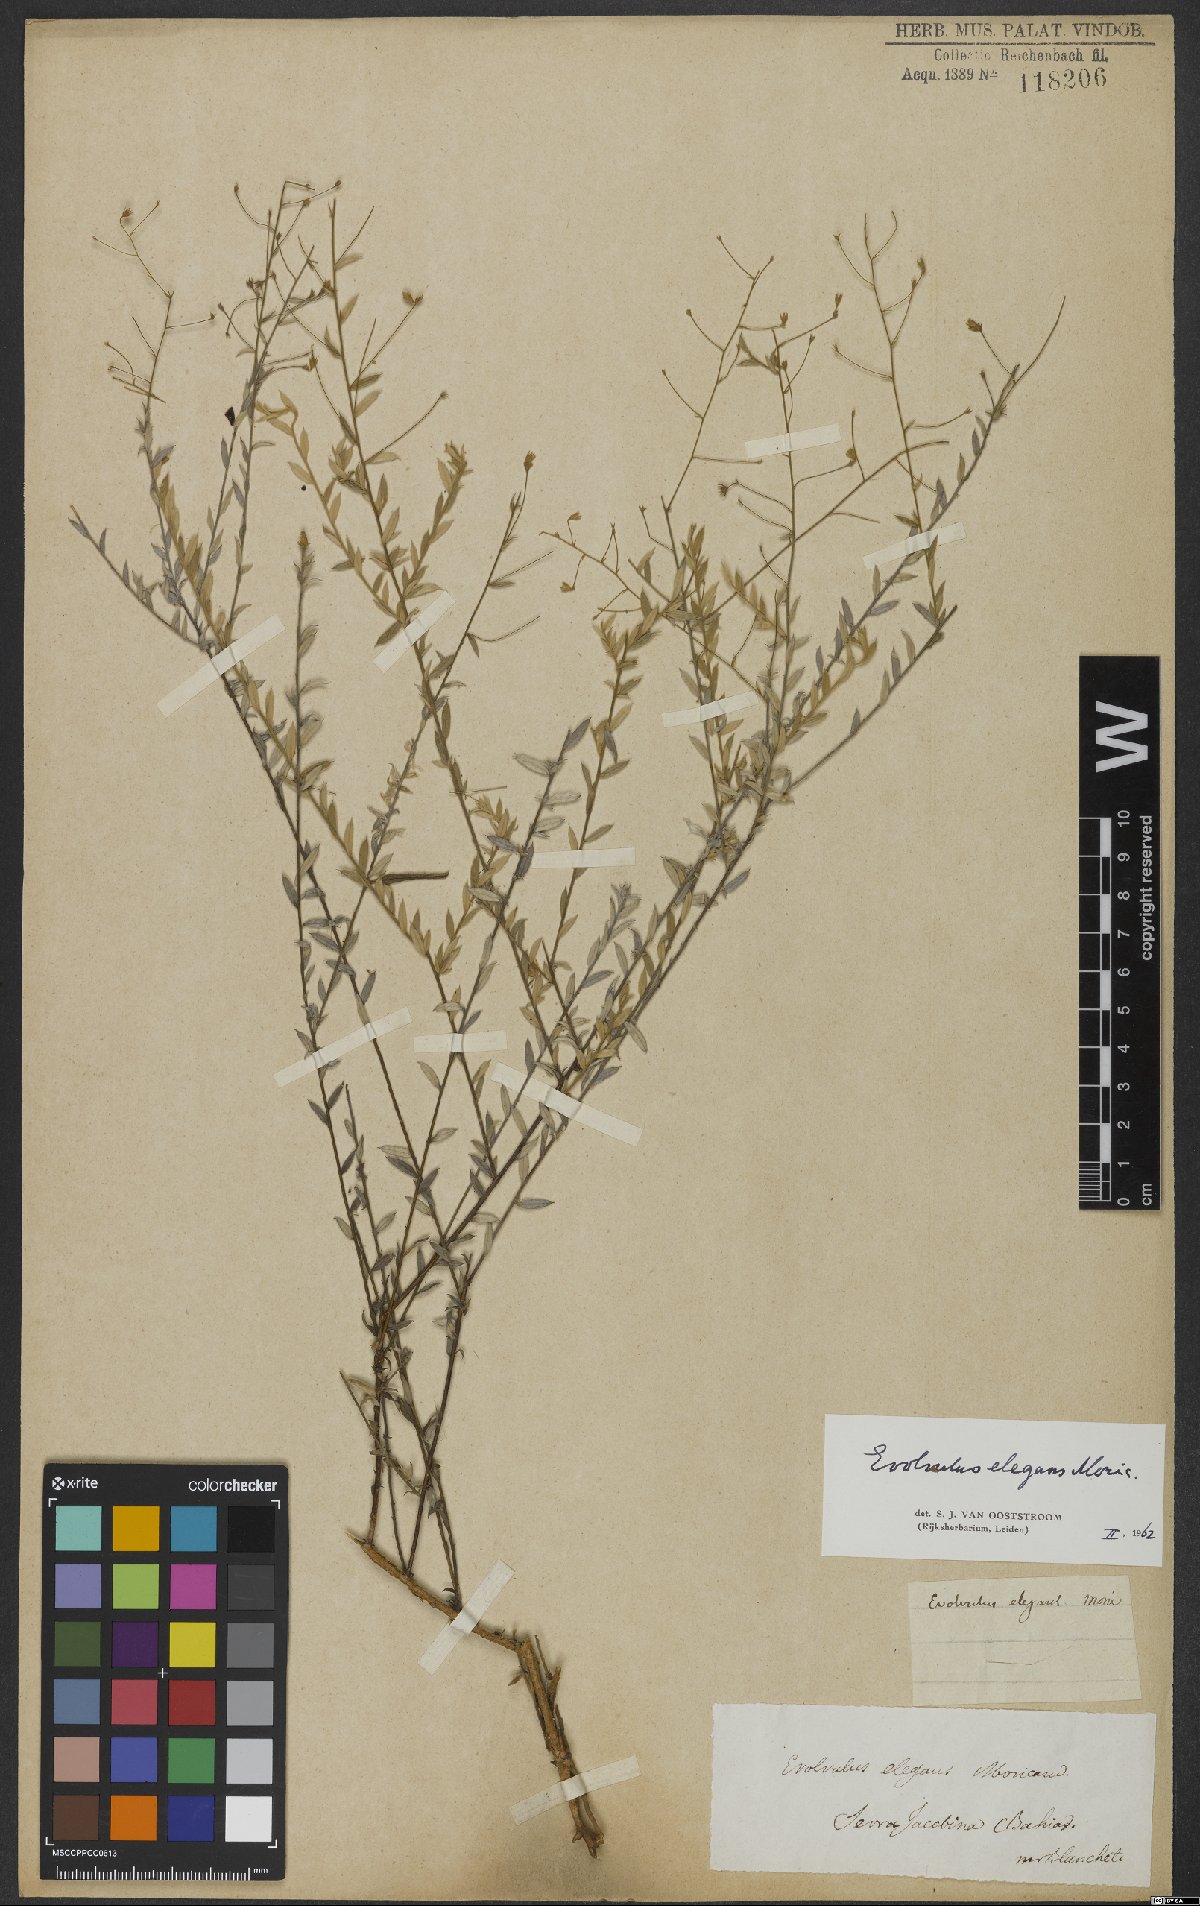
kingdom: Plantae
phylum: Tracheophyta
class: Magnoliopsida
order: Solanales
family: Convolvulaceae
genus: Evolvulus
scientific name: Evolvulus elegans
